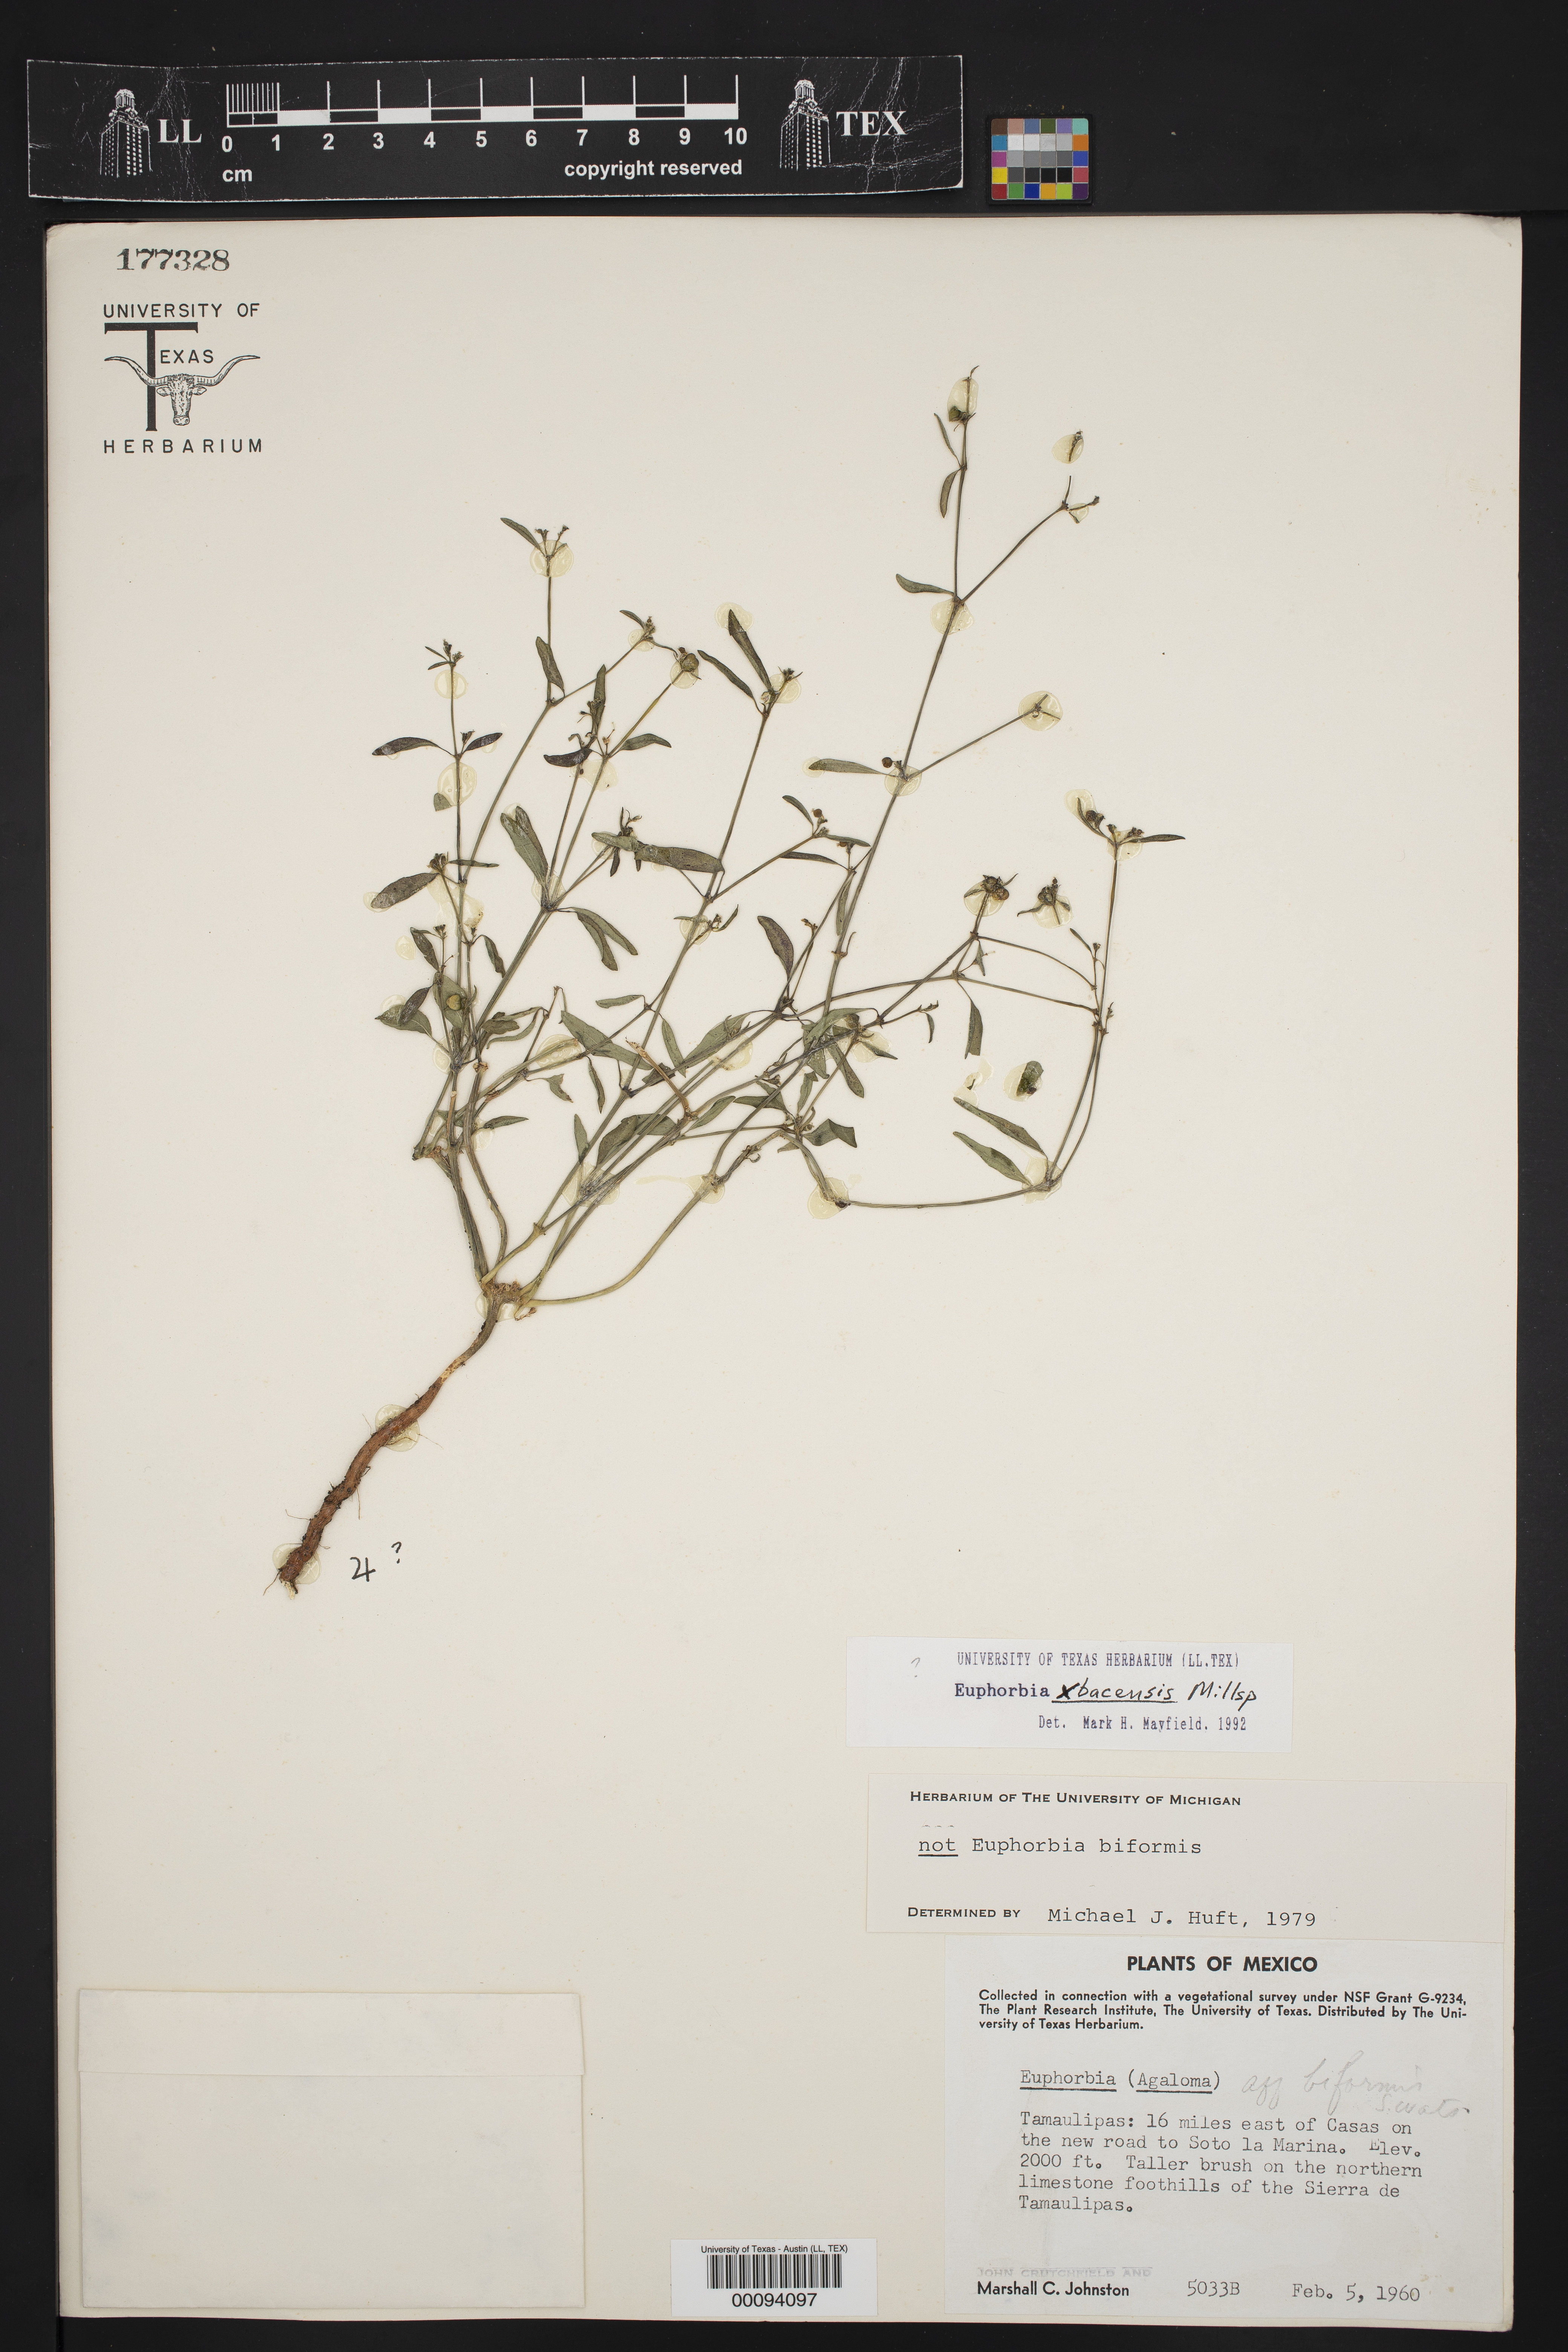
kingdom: Plantae
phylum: Tracheophyta
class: Magnoliopsida
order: Malpighiales
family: Euphorbiaceae
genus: Euphorbia
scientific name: Euphorbia xbacensis
